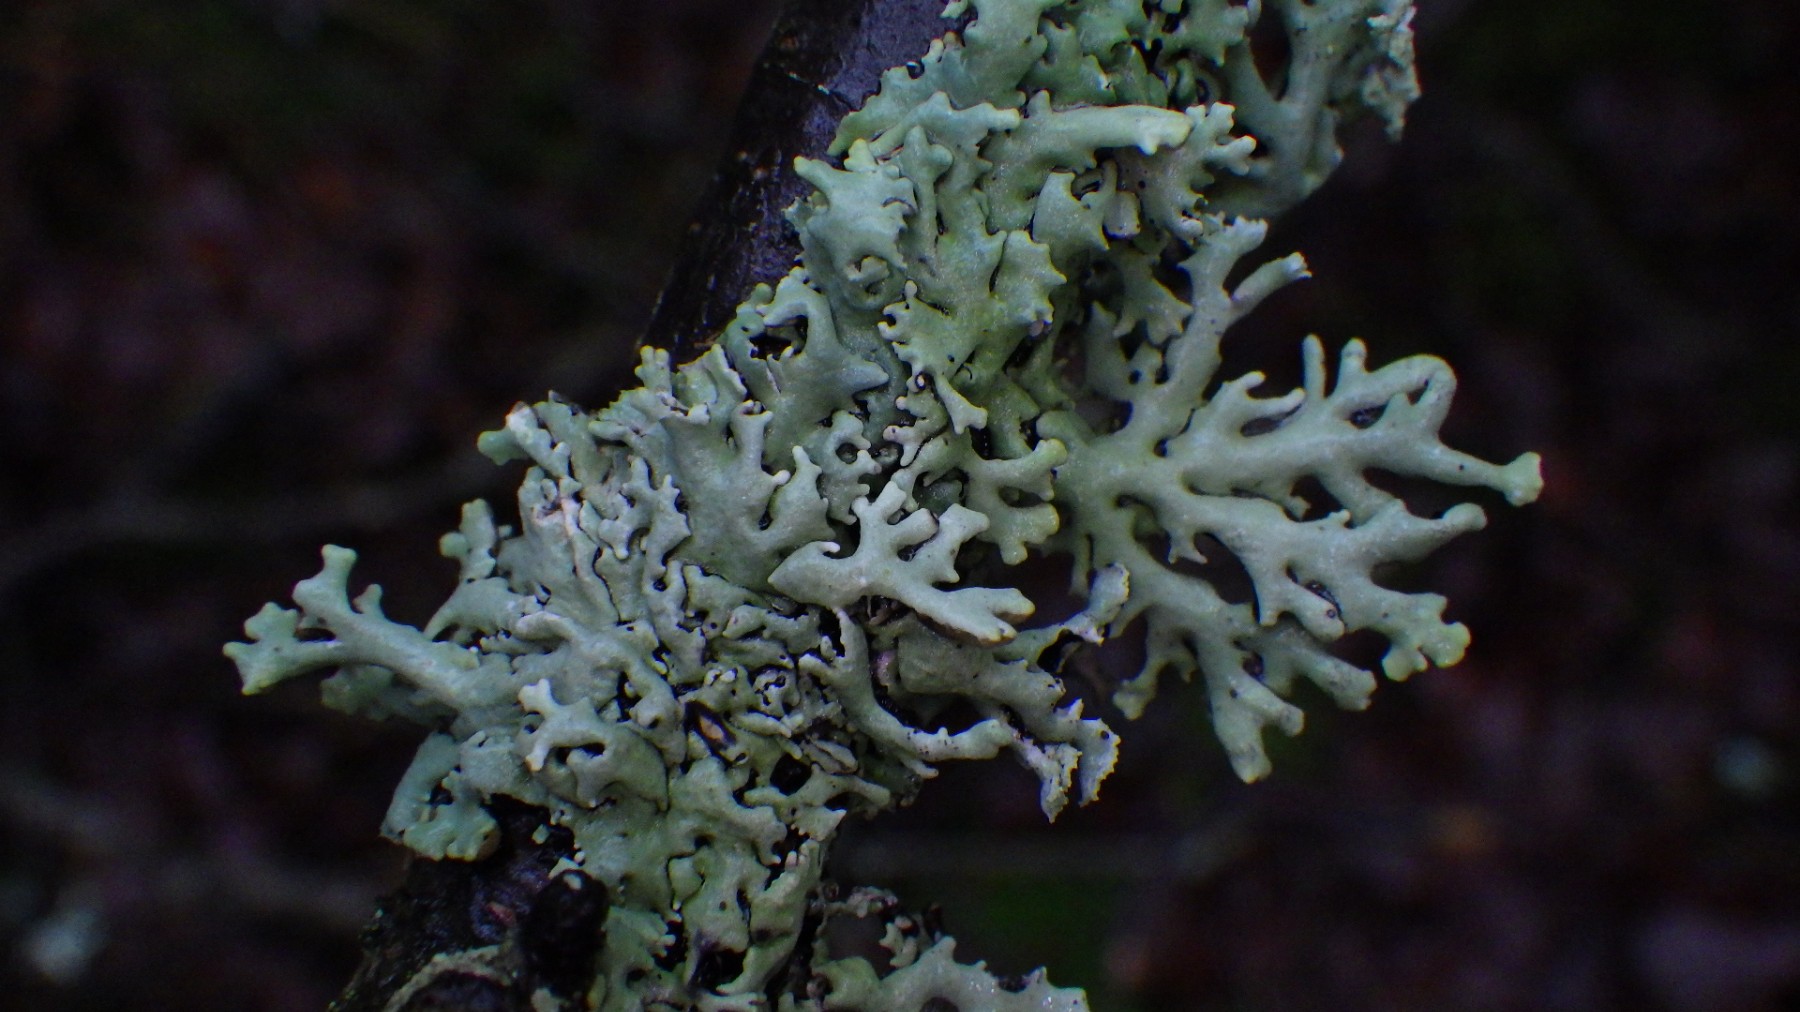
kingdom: Fungi
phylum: Ascomycota
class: Lecanoromycetes
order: Lecanorales
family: Parmeliaceae
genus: Hypogymnia
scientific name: Hypogymnia physodes
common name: almindelig kvistlav
